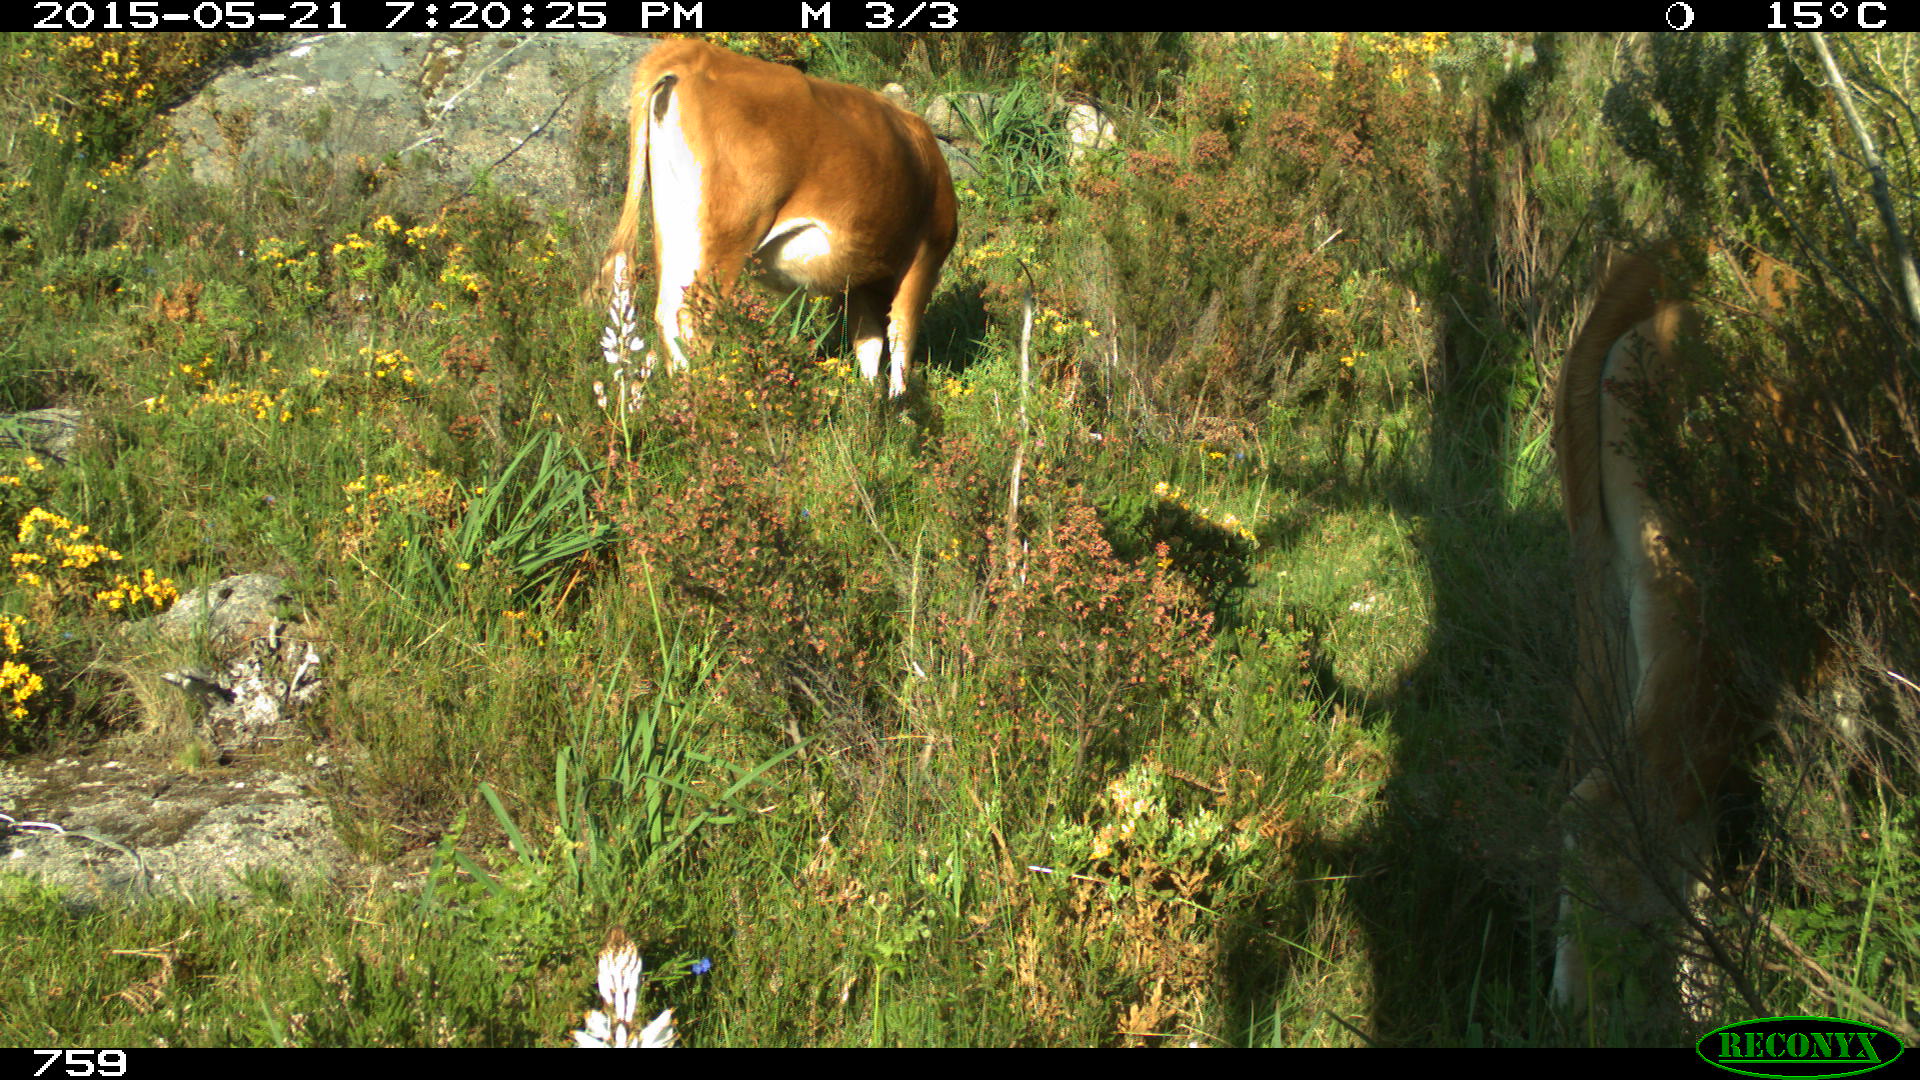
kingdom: Animalia
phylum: Chordata
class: Mammalia
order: Artiodactyla
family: Bovidae
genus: Bos
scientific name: Bos taurus
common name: Domesticated cattle
